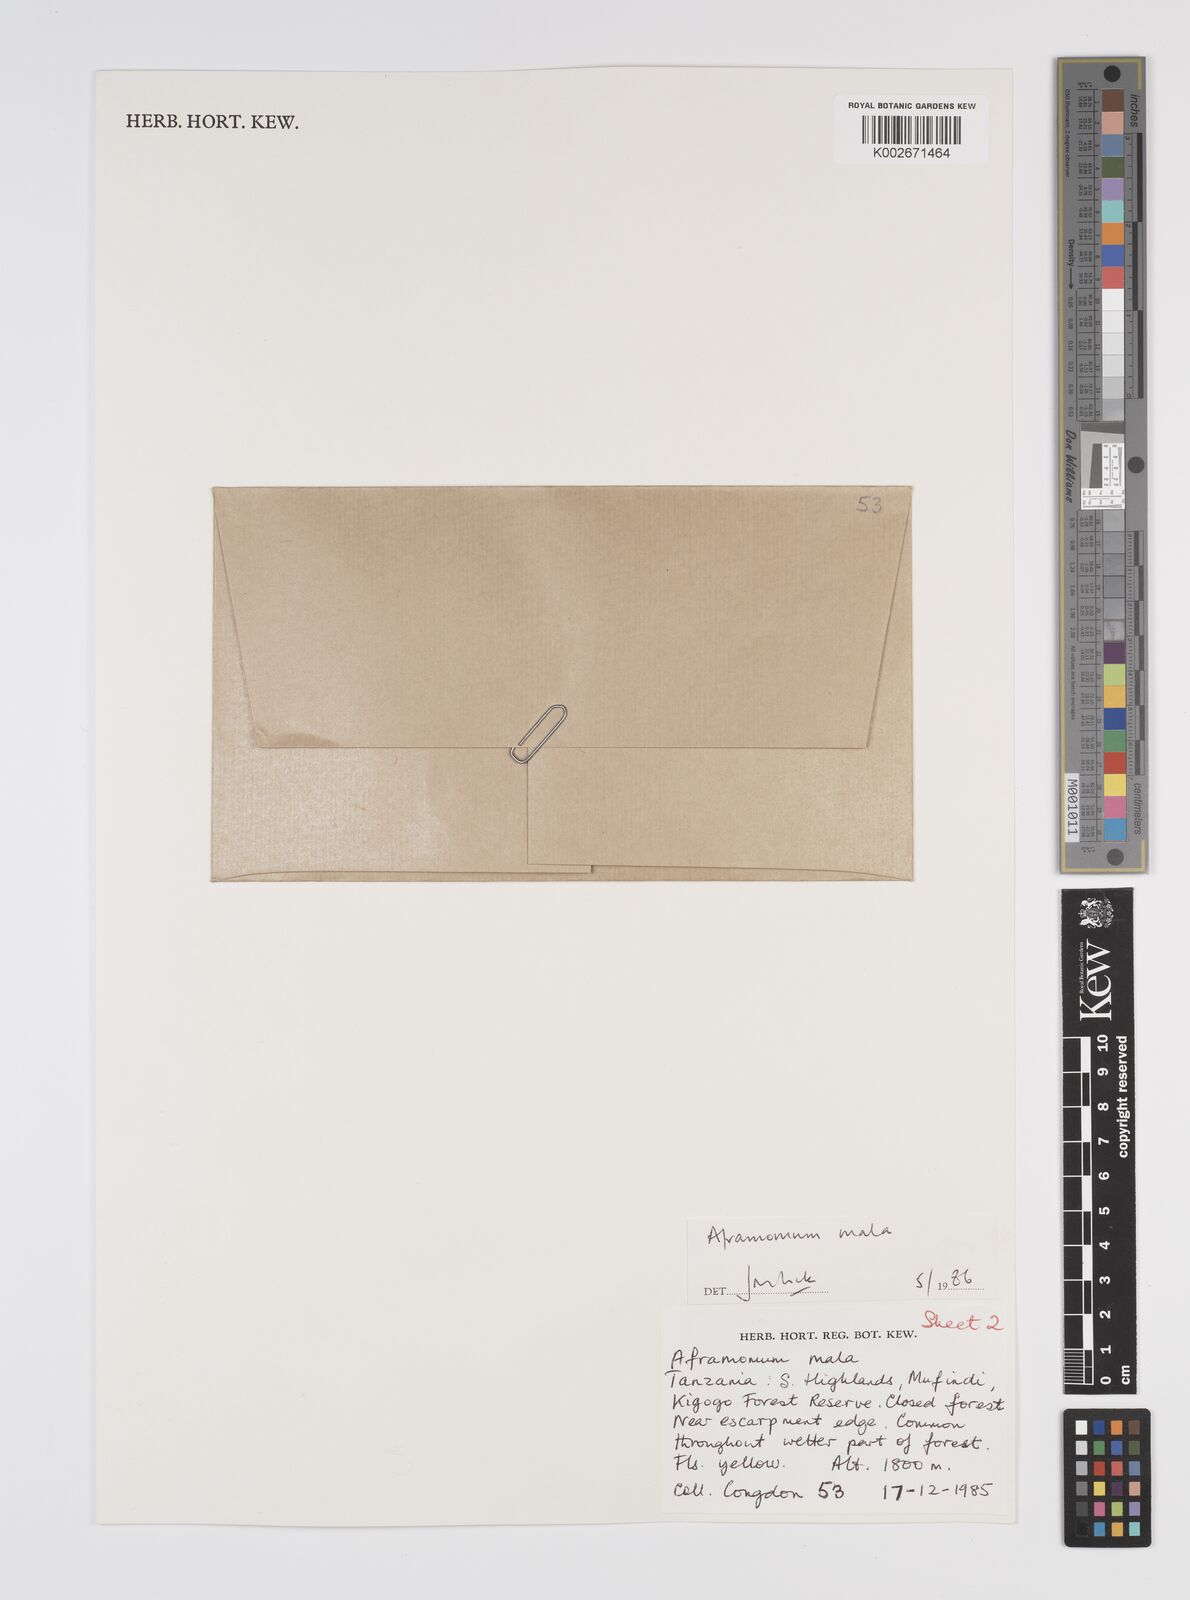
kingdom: Plantae
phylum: Tracheophyta
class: Liliopsida
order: Zingiberales
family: Zingiberaceae
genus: Aframomum
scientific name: Aframomum mala
